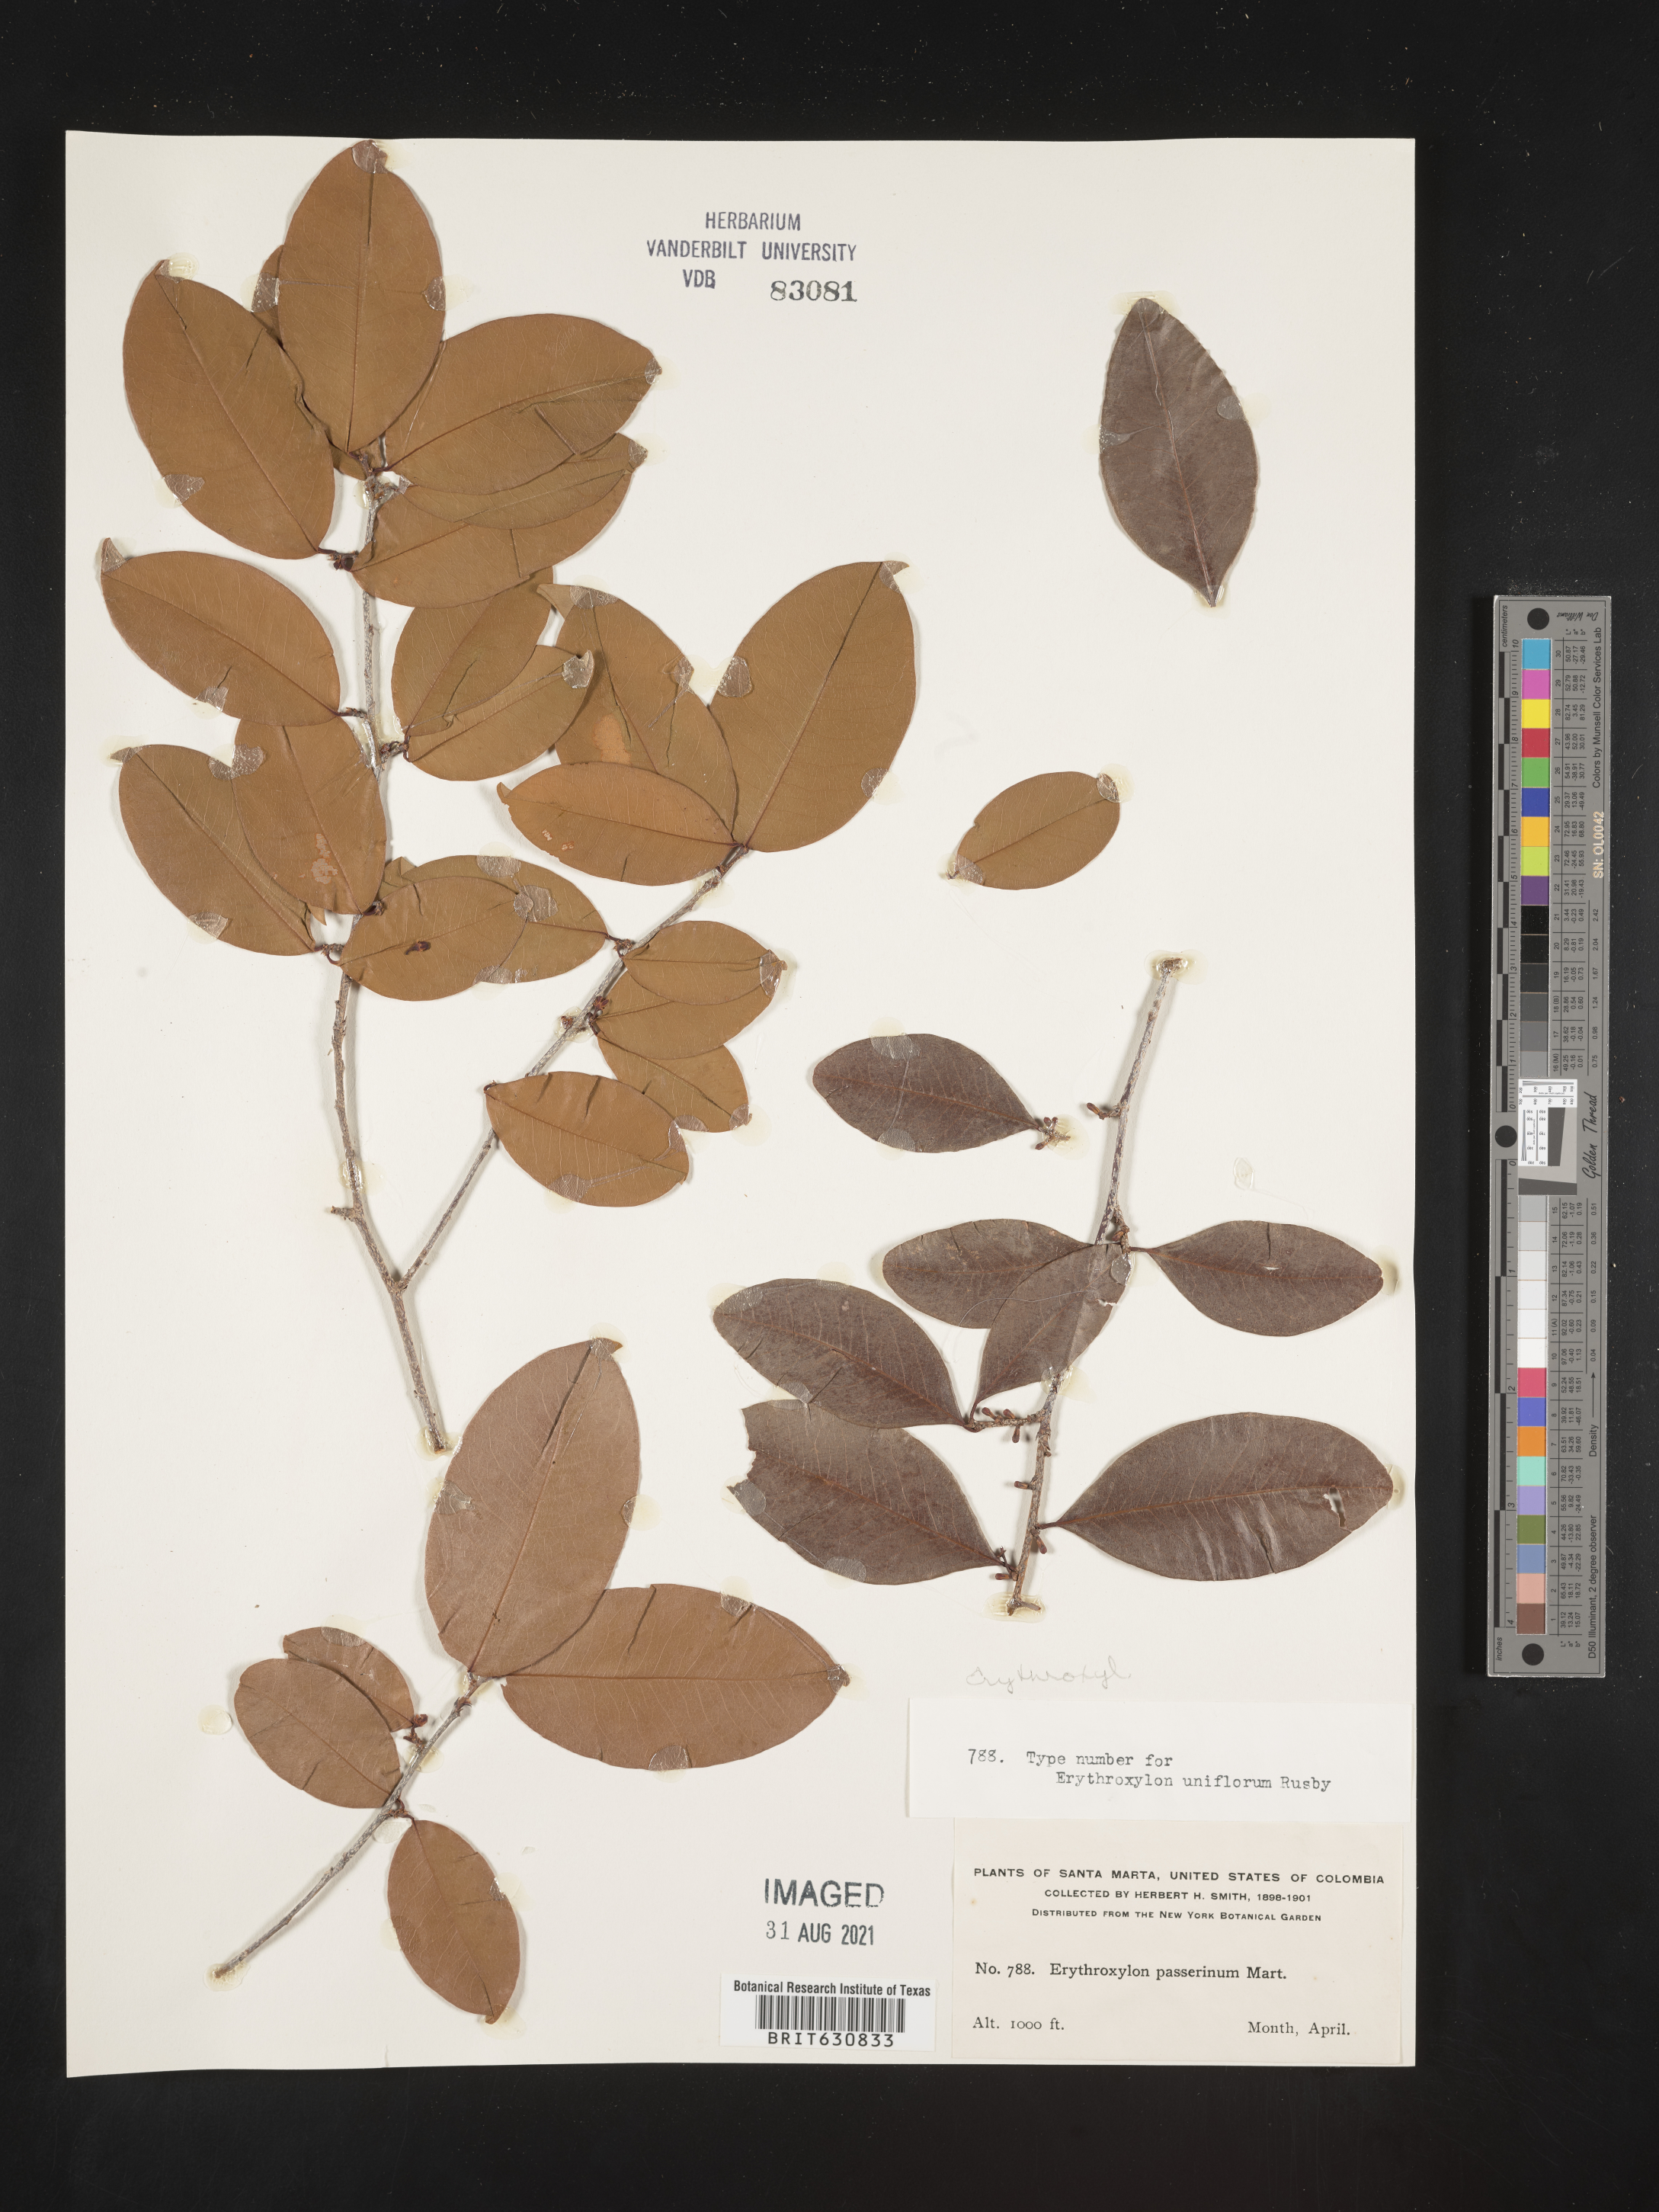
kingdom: Plantae
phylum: Tracheophyta
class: Magnoliopsida
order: Malpighiales
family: Erythroxylaceae
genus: Erythroxylum
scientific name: Erythroxylum
